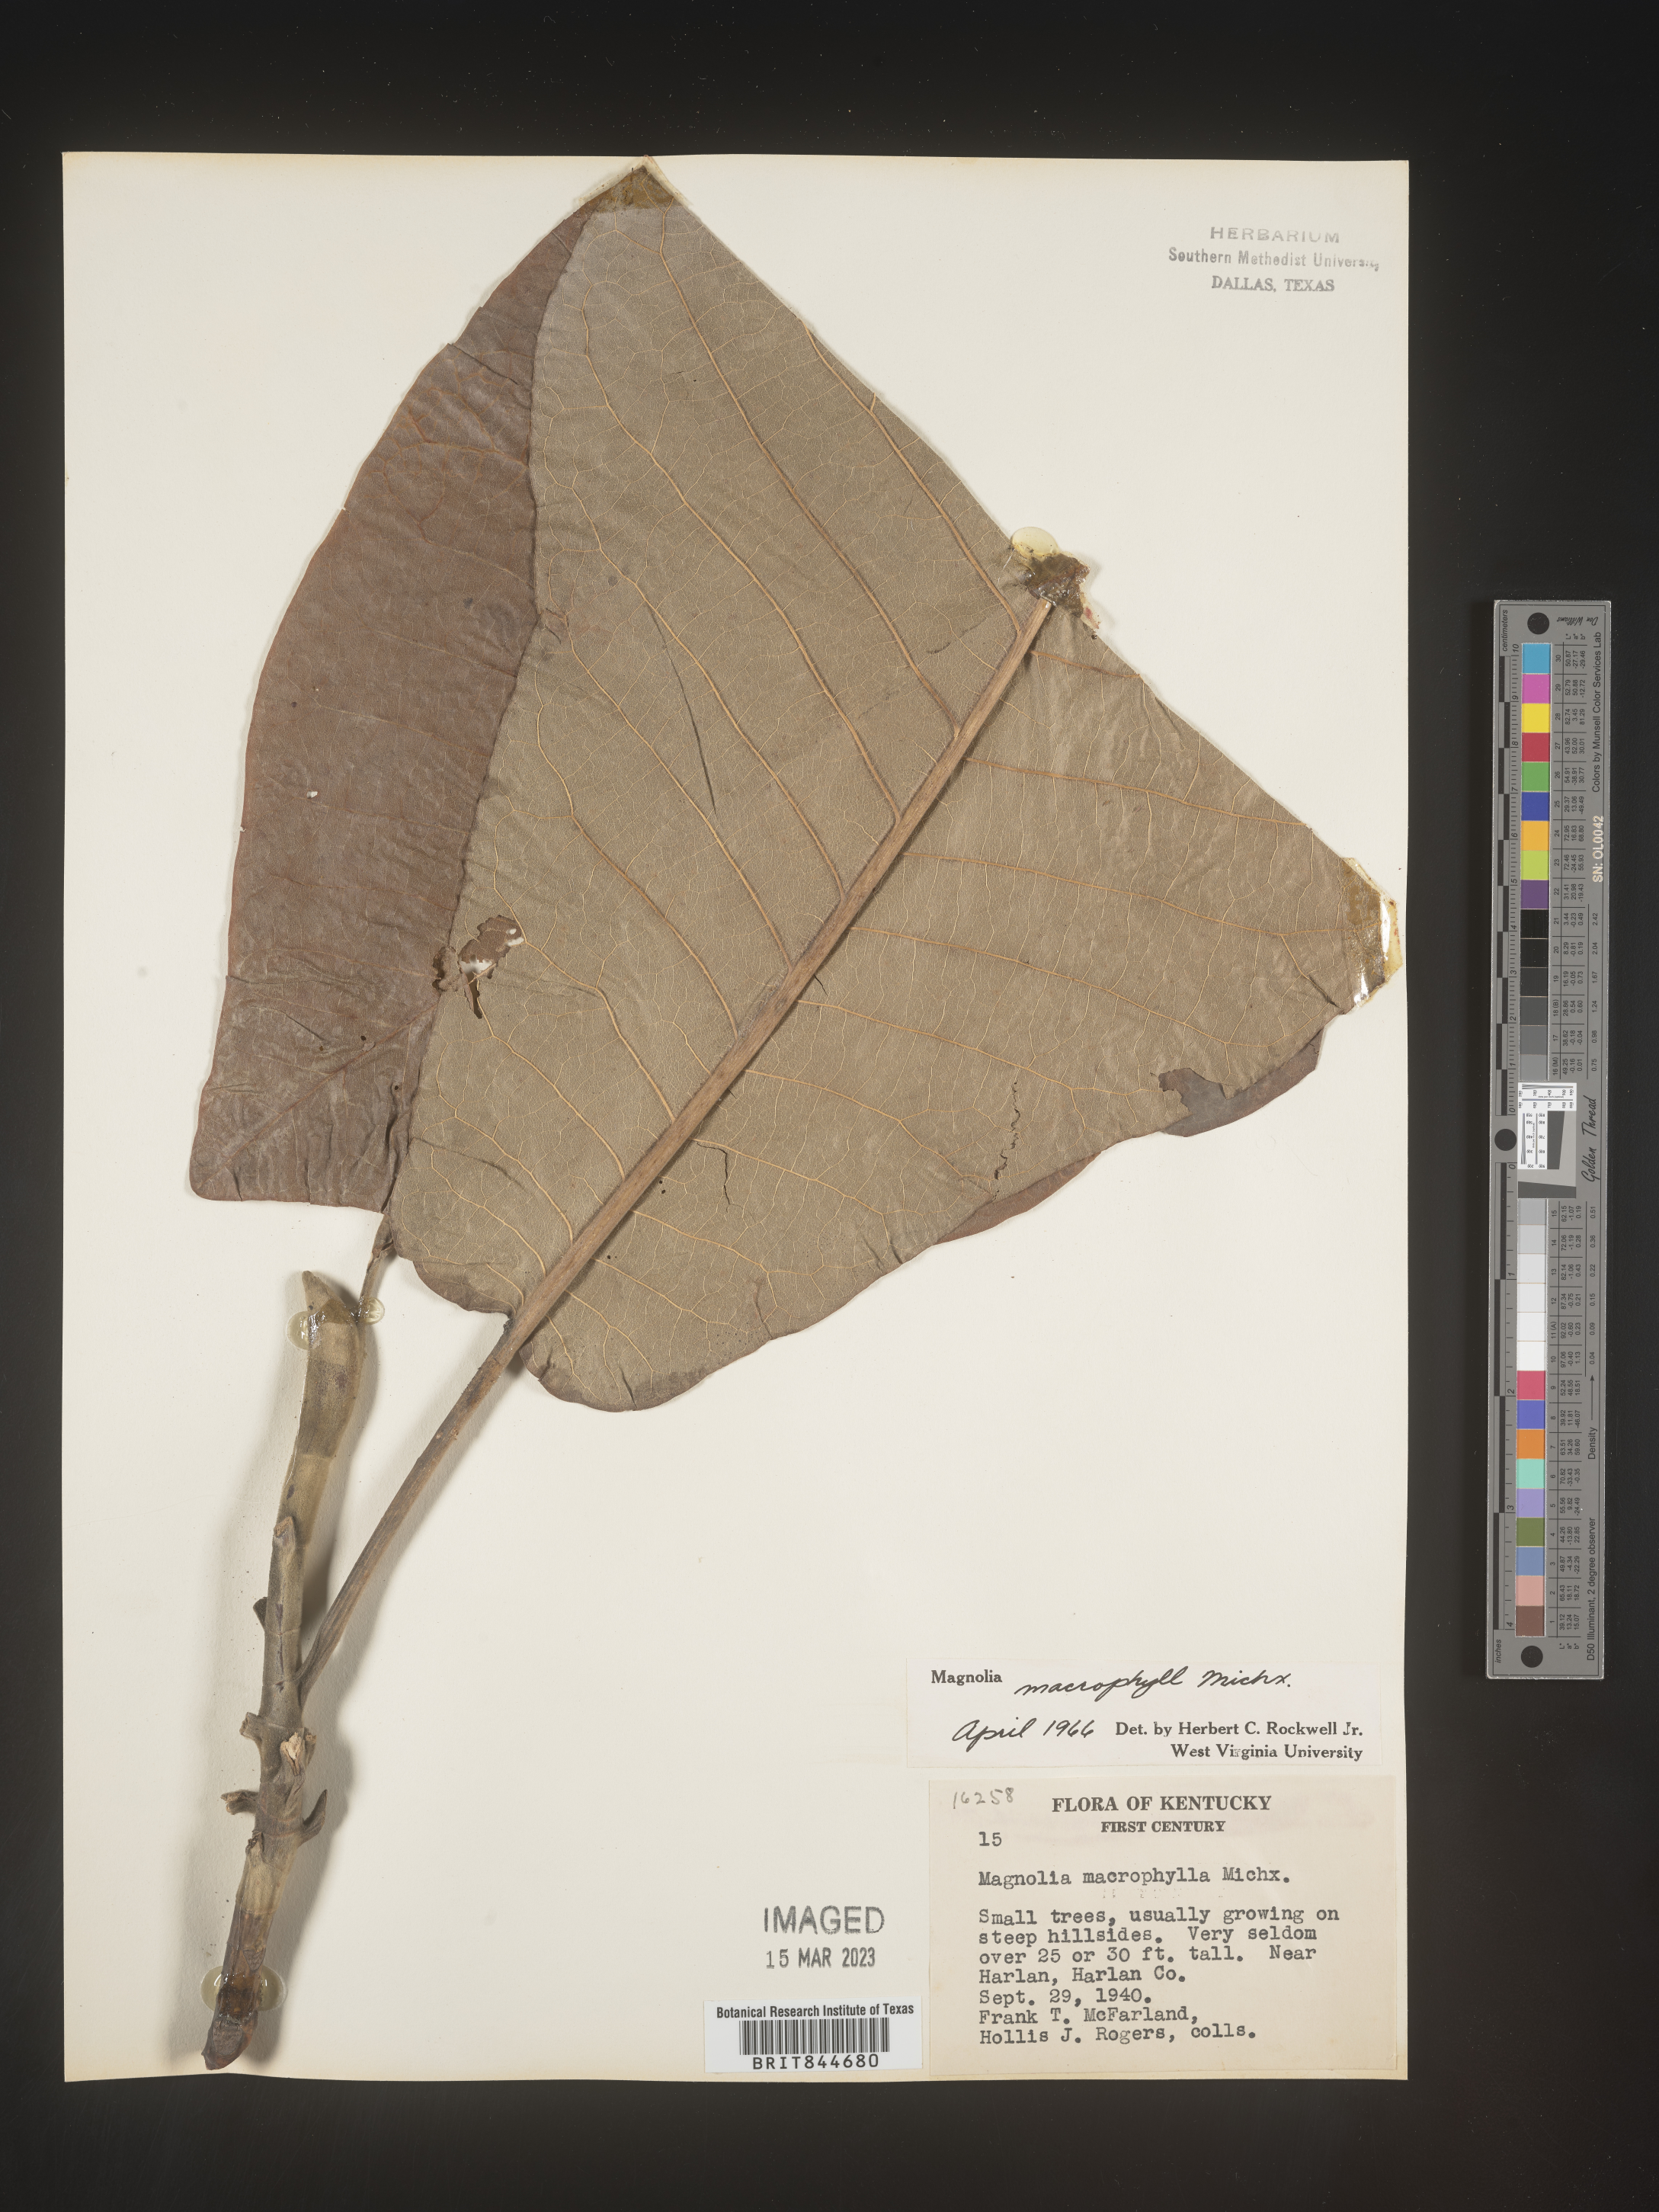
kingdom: Plantae
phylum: Tracheophyta
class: Magnoliopsida
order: Magnoliales
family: Magnoliaceae
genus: Magnolia
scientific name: Magnolia macrophylla
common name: Big-leaf magnolia
